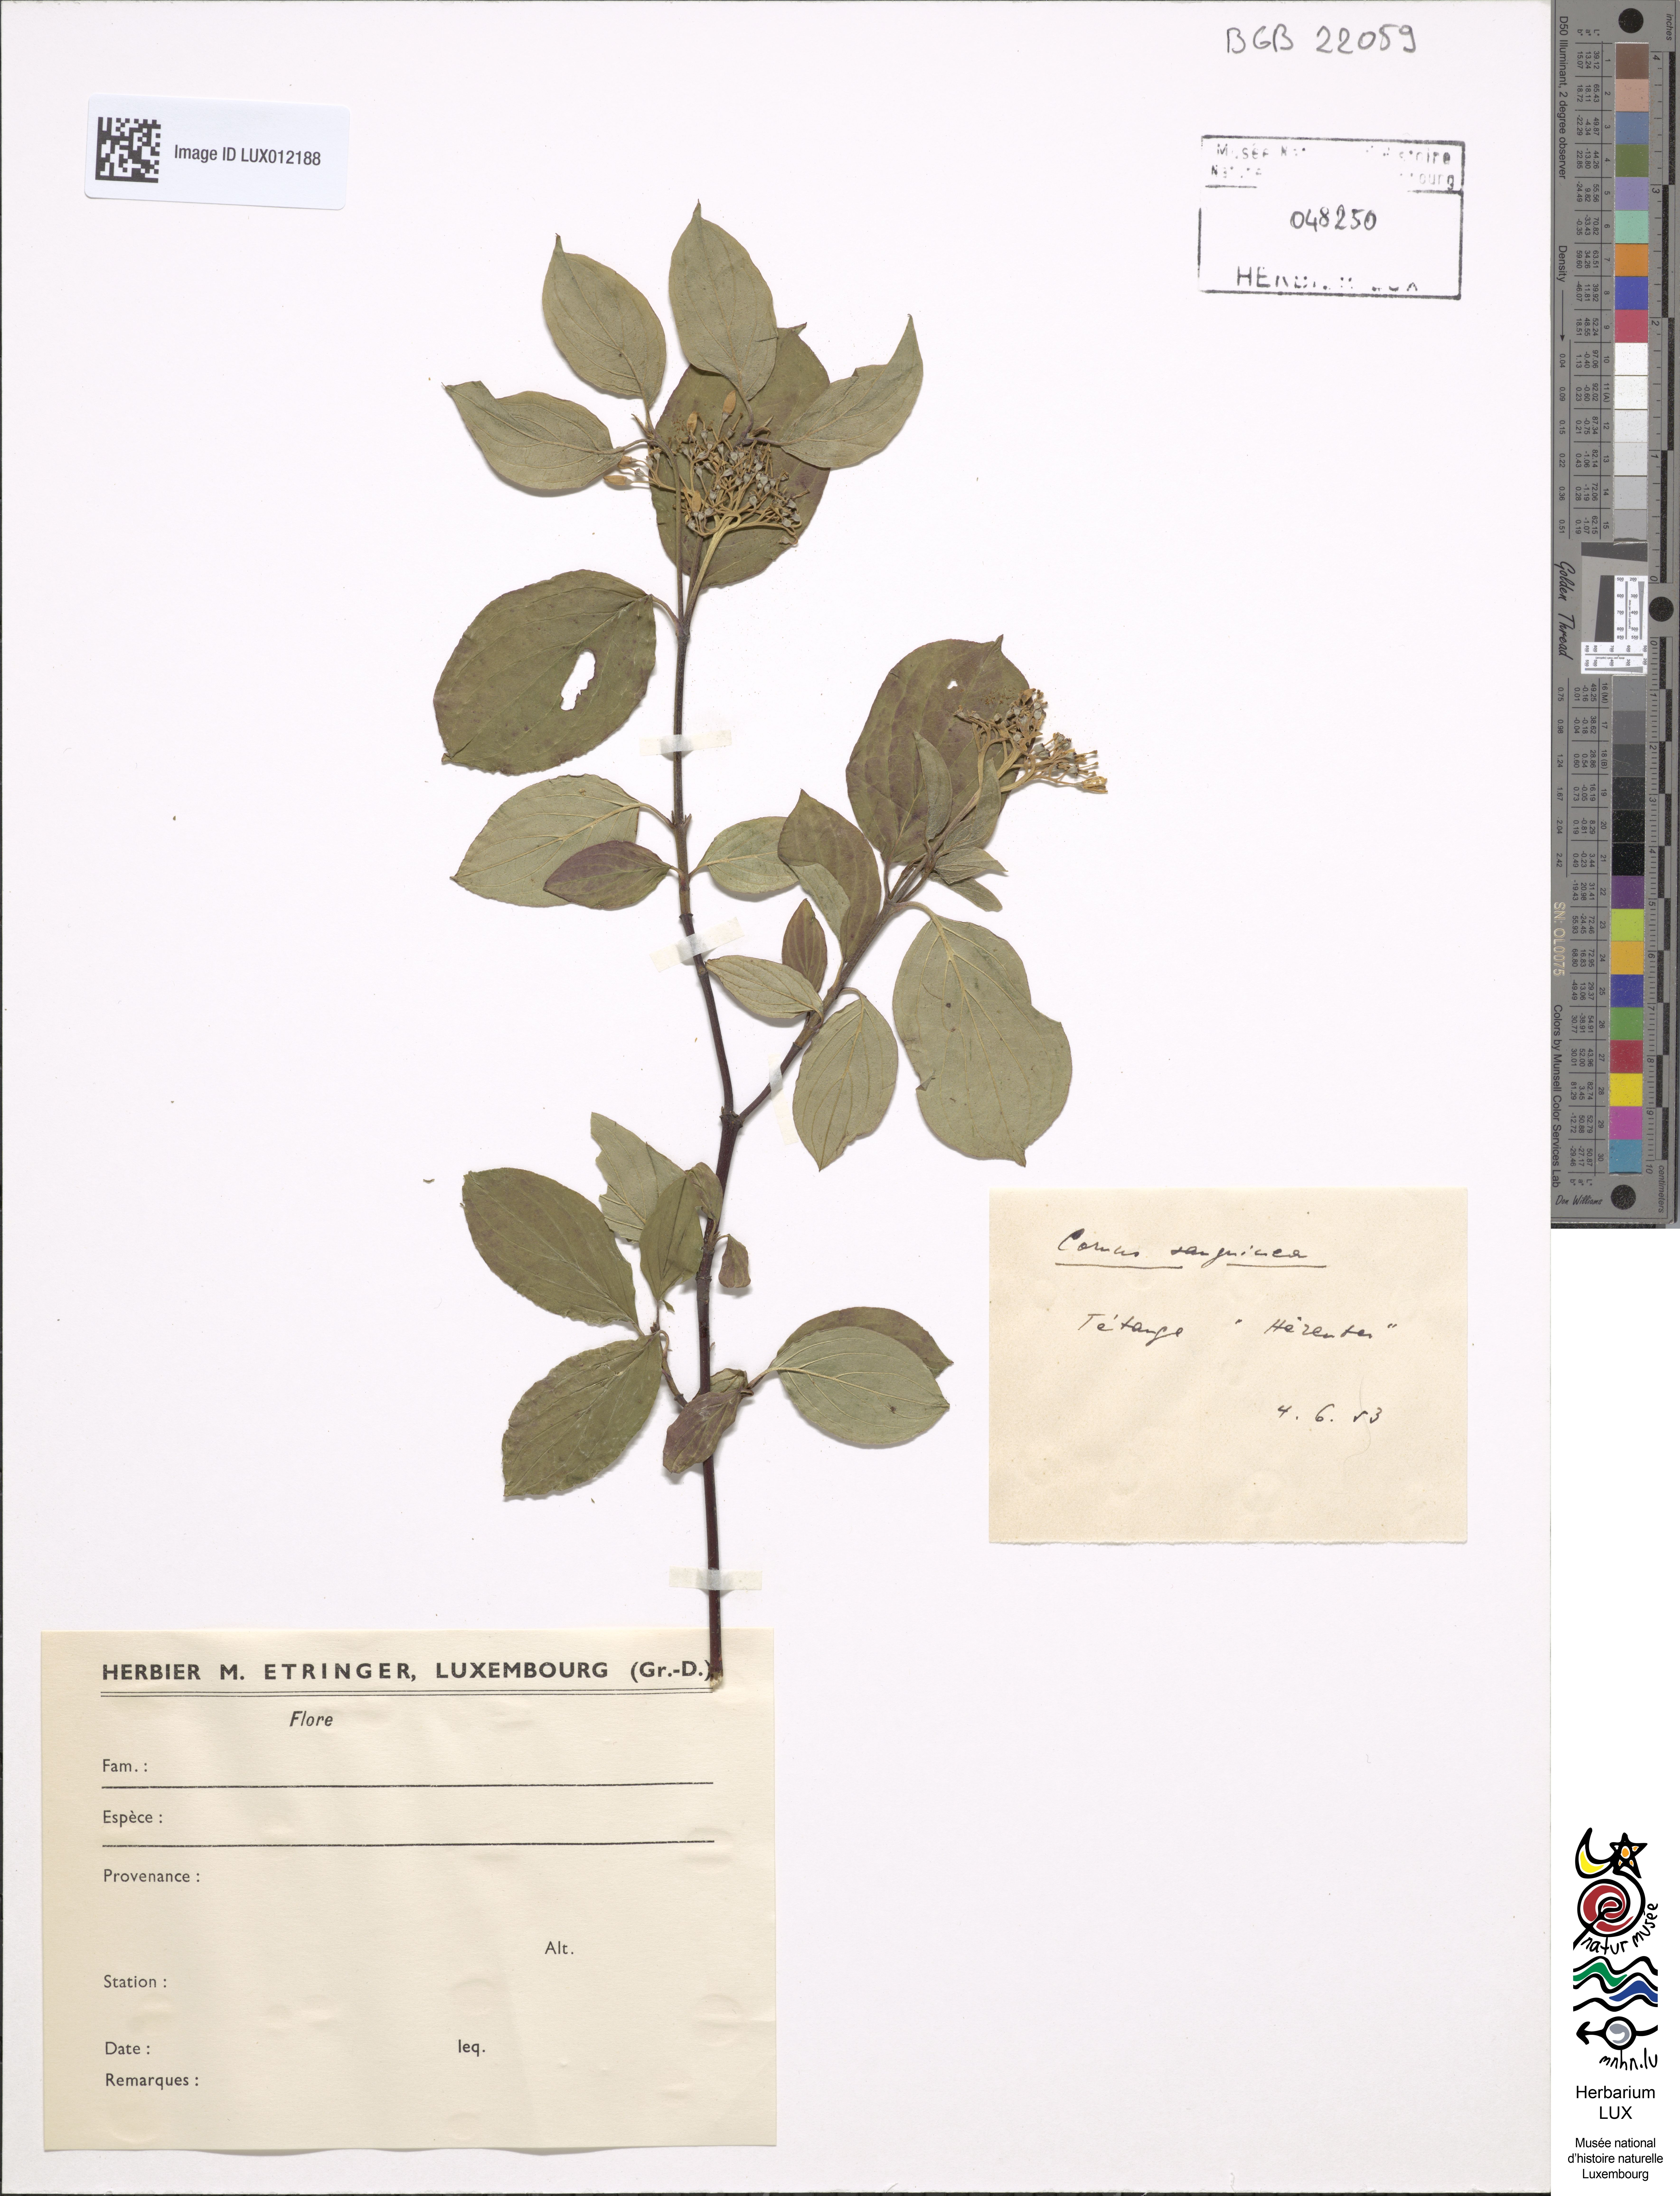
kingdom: Plantae
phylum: Tracheophyta
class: Magnoliopsida
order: Cornales
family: Cornaceae
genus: Cornus
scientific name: Cornus sanguinea
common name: Dogwood
